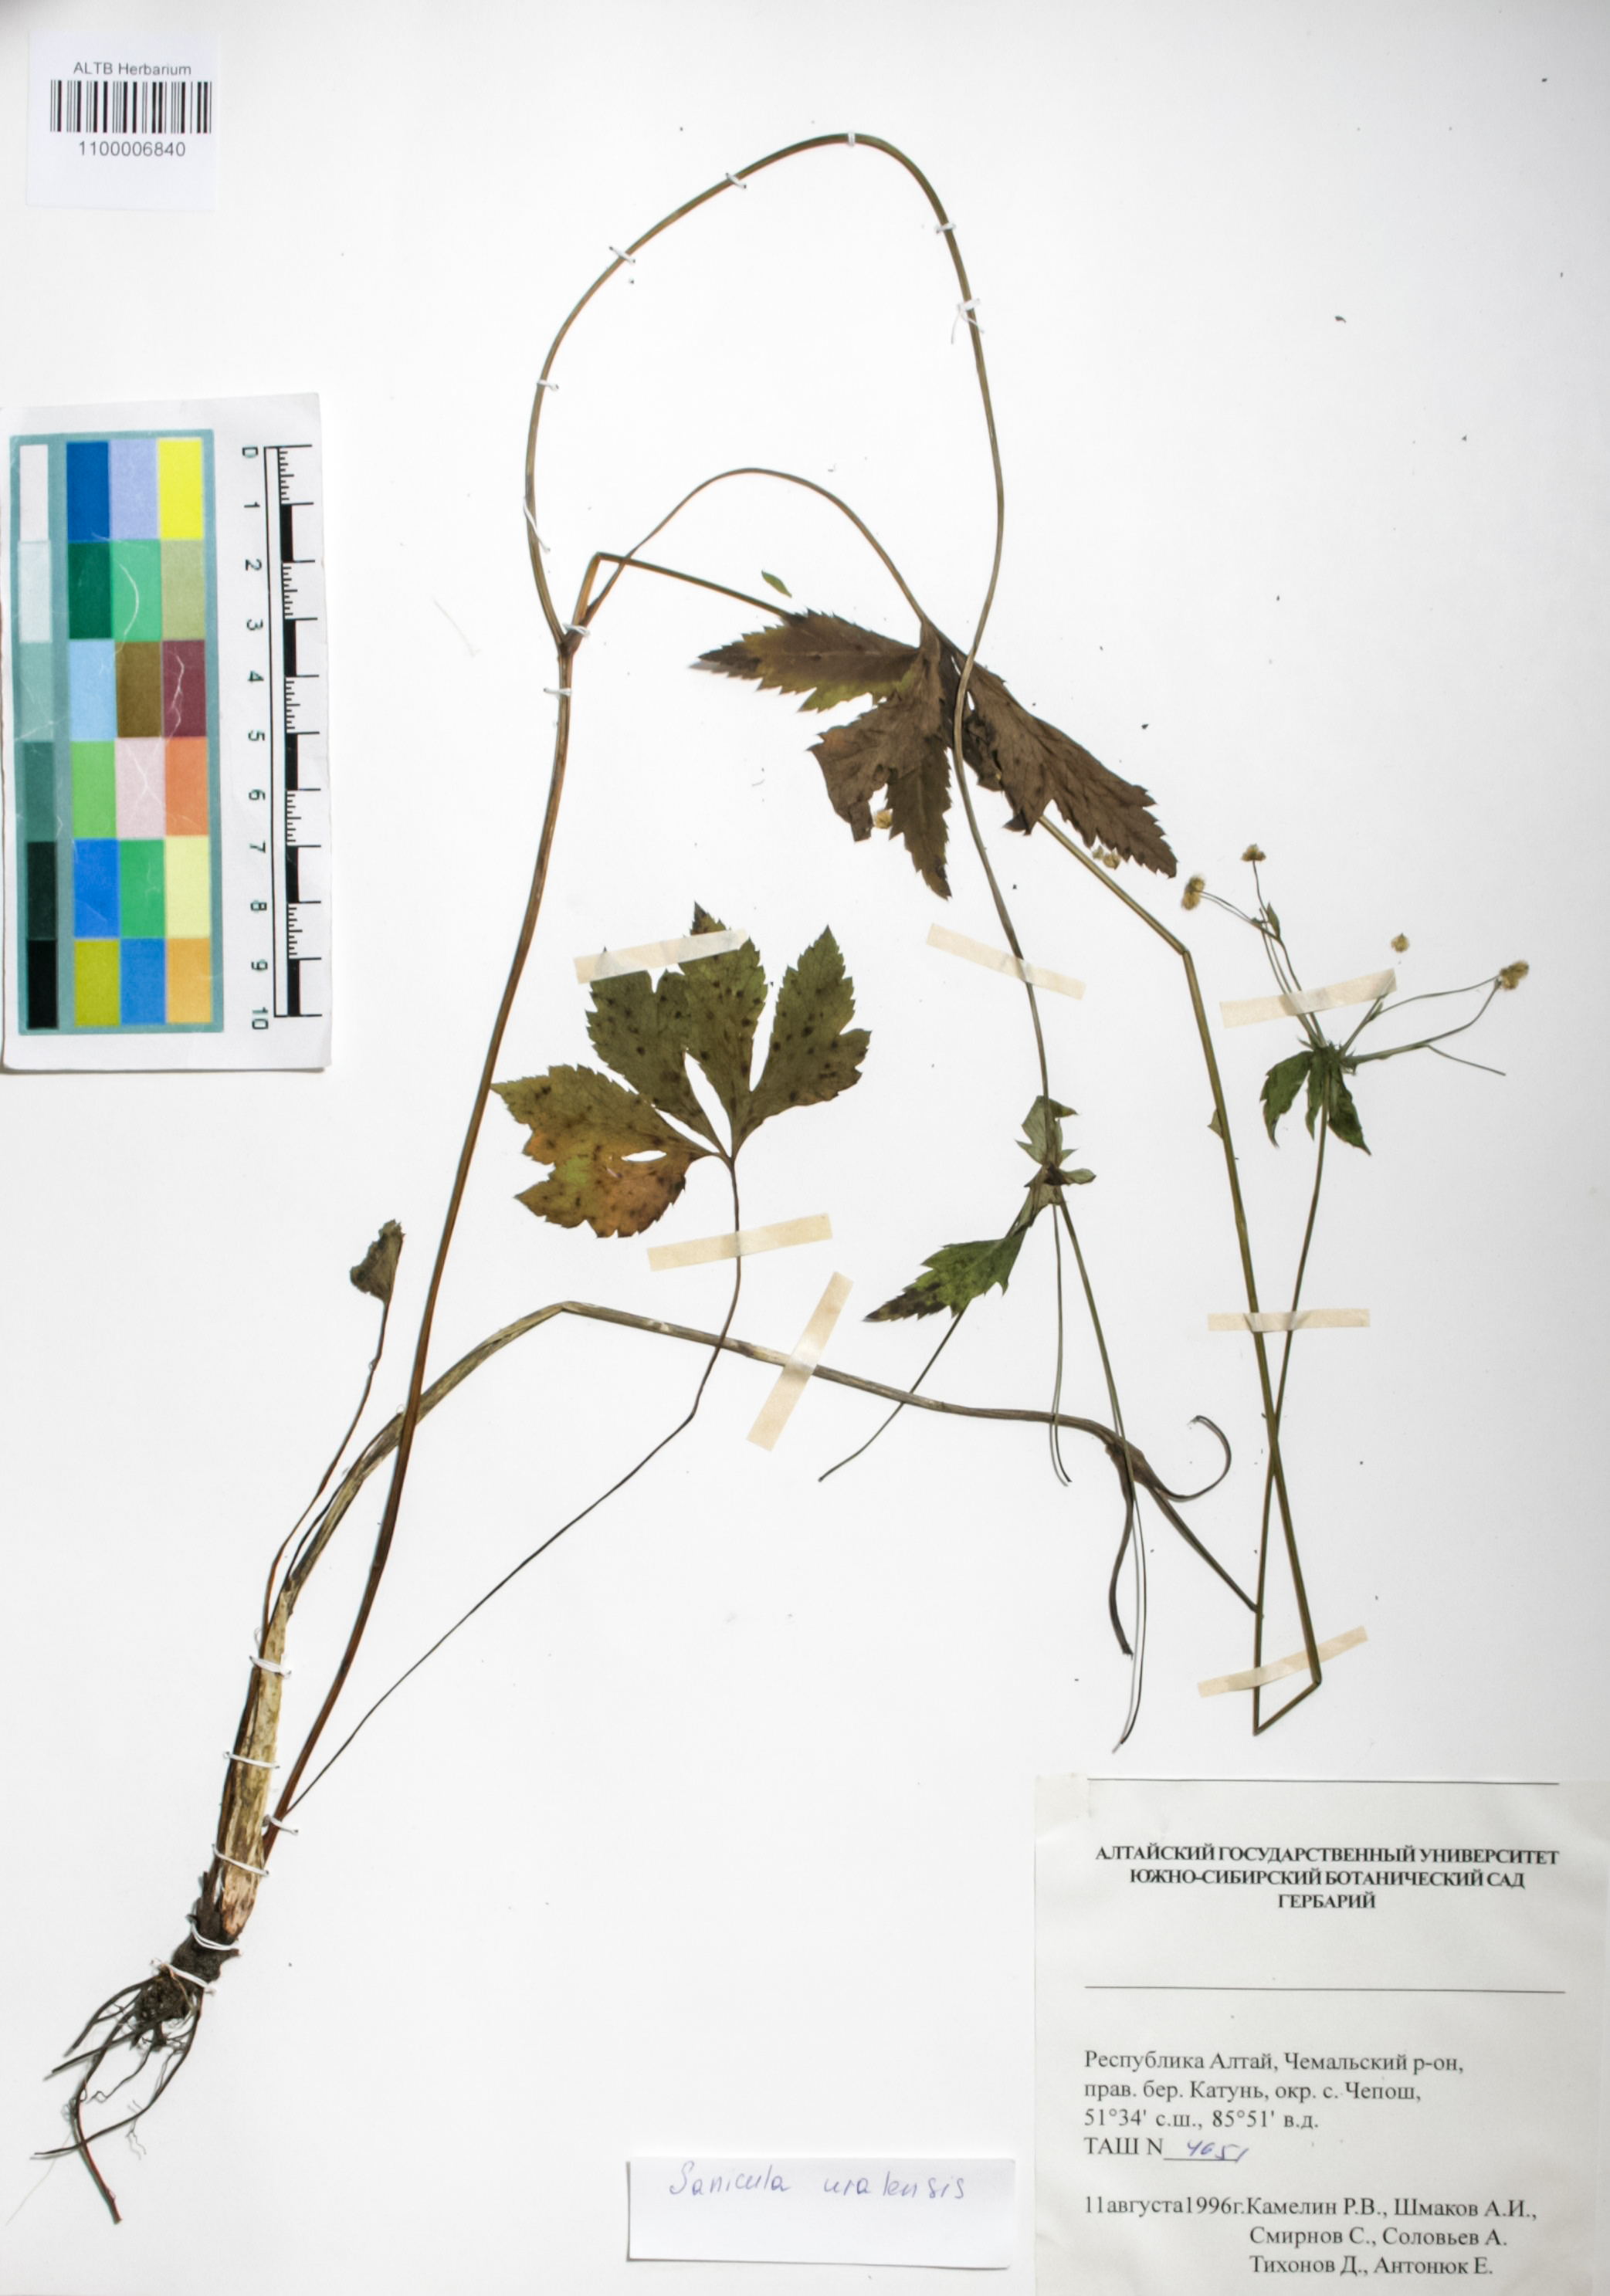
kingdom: Plantae
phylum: Tracheophyta
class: Magnoliopsida
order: Apiales
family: Apiaceae
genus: Sanicula
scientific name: Sanicula giraldii
